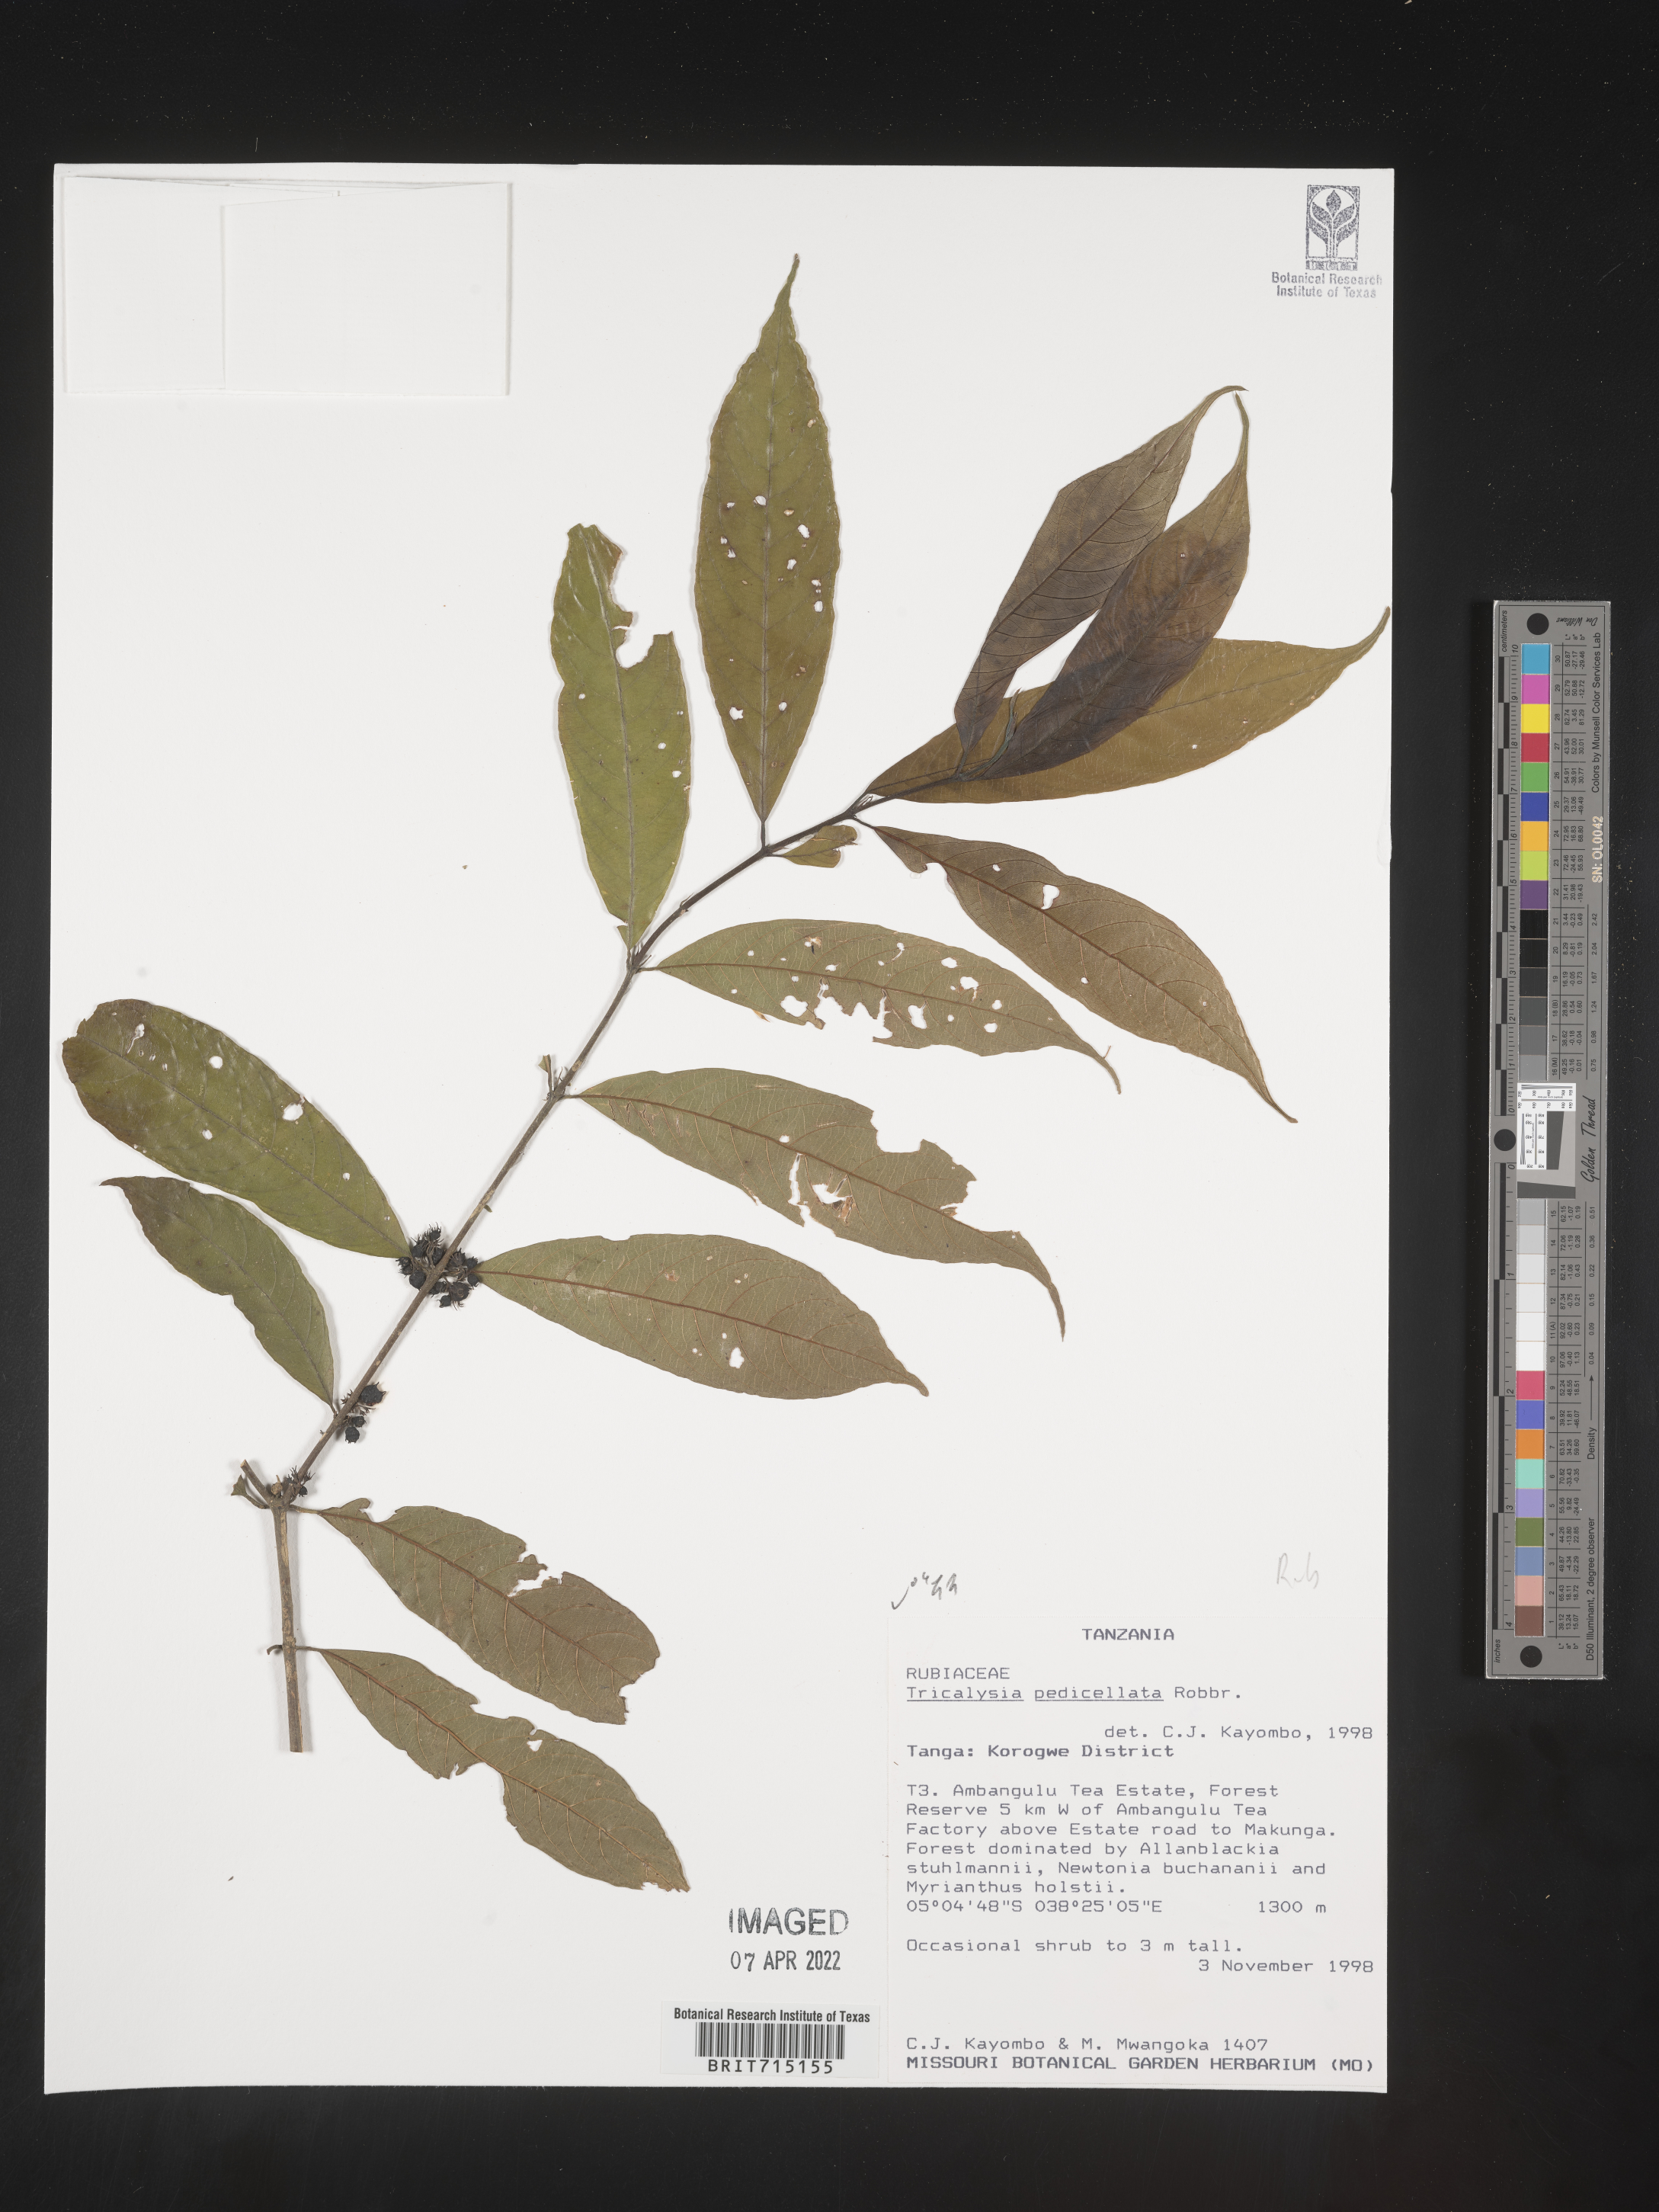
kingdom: Plantae
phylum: Tracheophyta
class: Magnoliopsida
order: Gentianales
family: Rubiaceae
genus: Tricalysia
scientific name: Tricalysia
